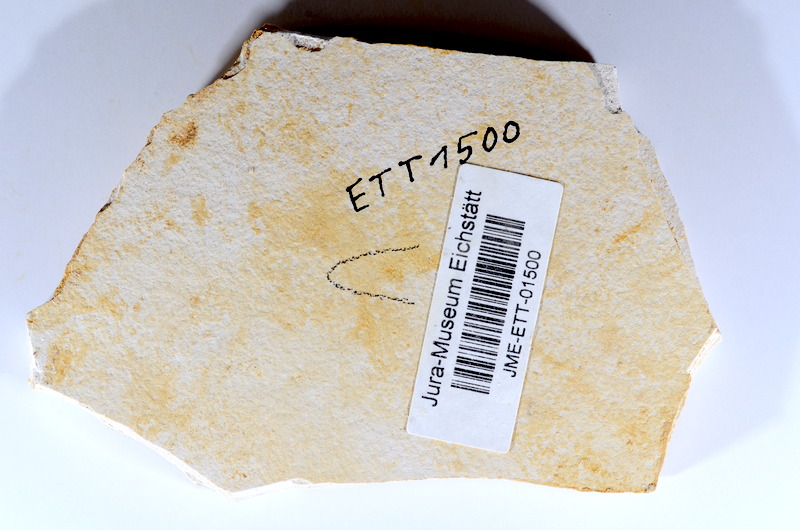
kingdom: Animalia
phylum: Chordata
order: Salmoniformes
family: Orthogonikleithridae
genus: Orthogonikleithrus
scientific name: Orthogonikleithrus hoelli
